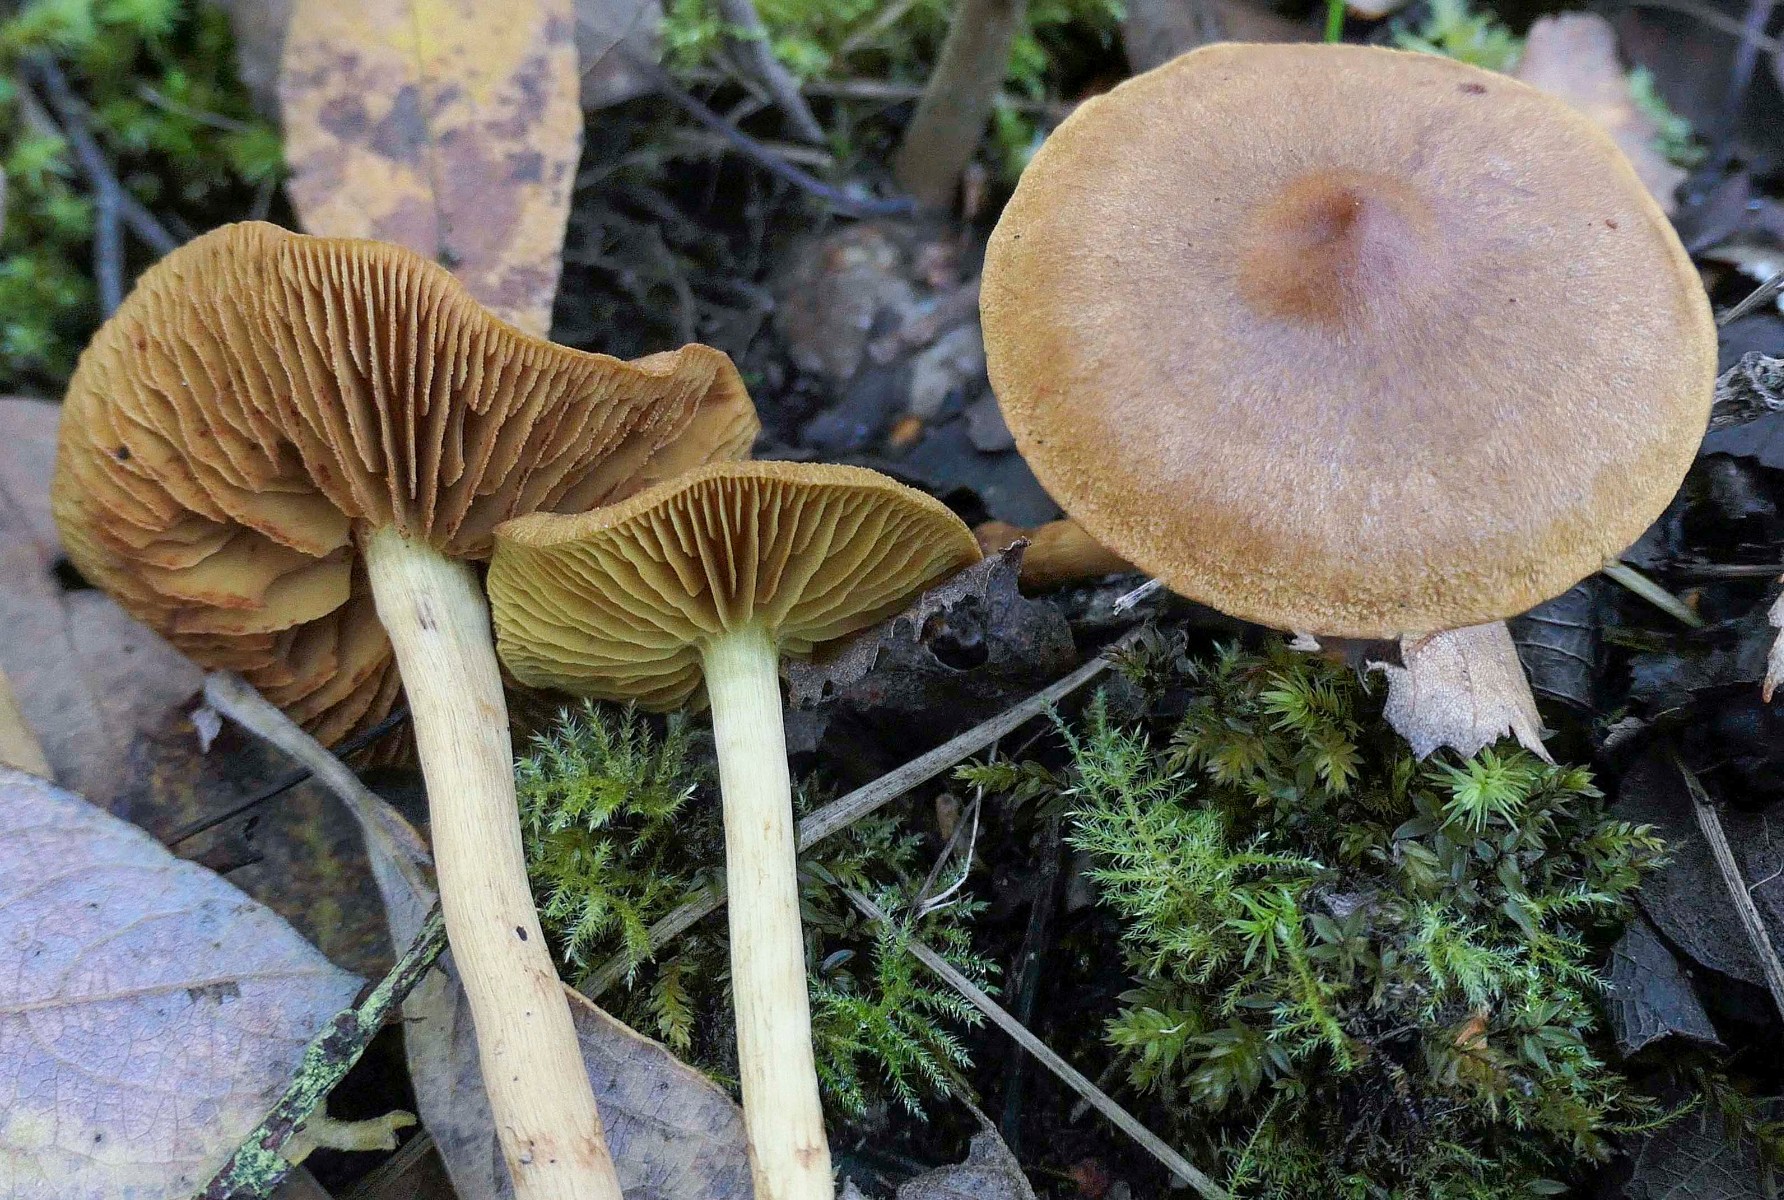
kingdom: Fungi
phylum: Basidiomycota
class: Agaricomycetes
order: Agaricales
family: Cortinariaceae
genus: Cortinarius
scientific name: Cortinarius uliginosus
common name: mose-slørhat
